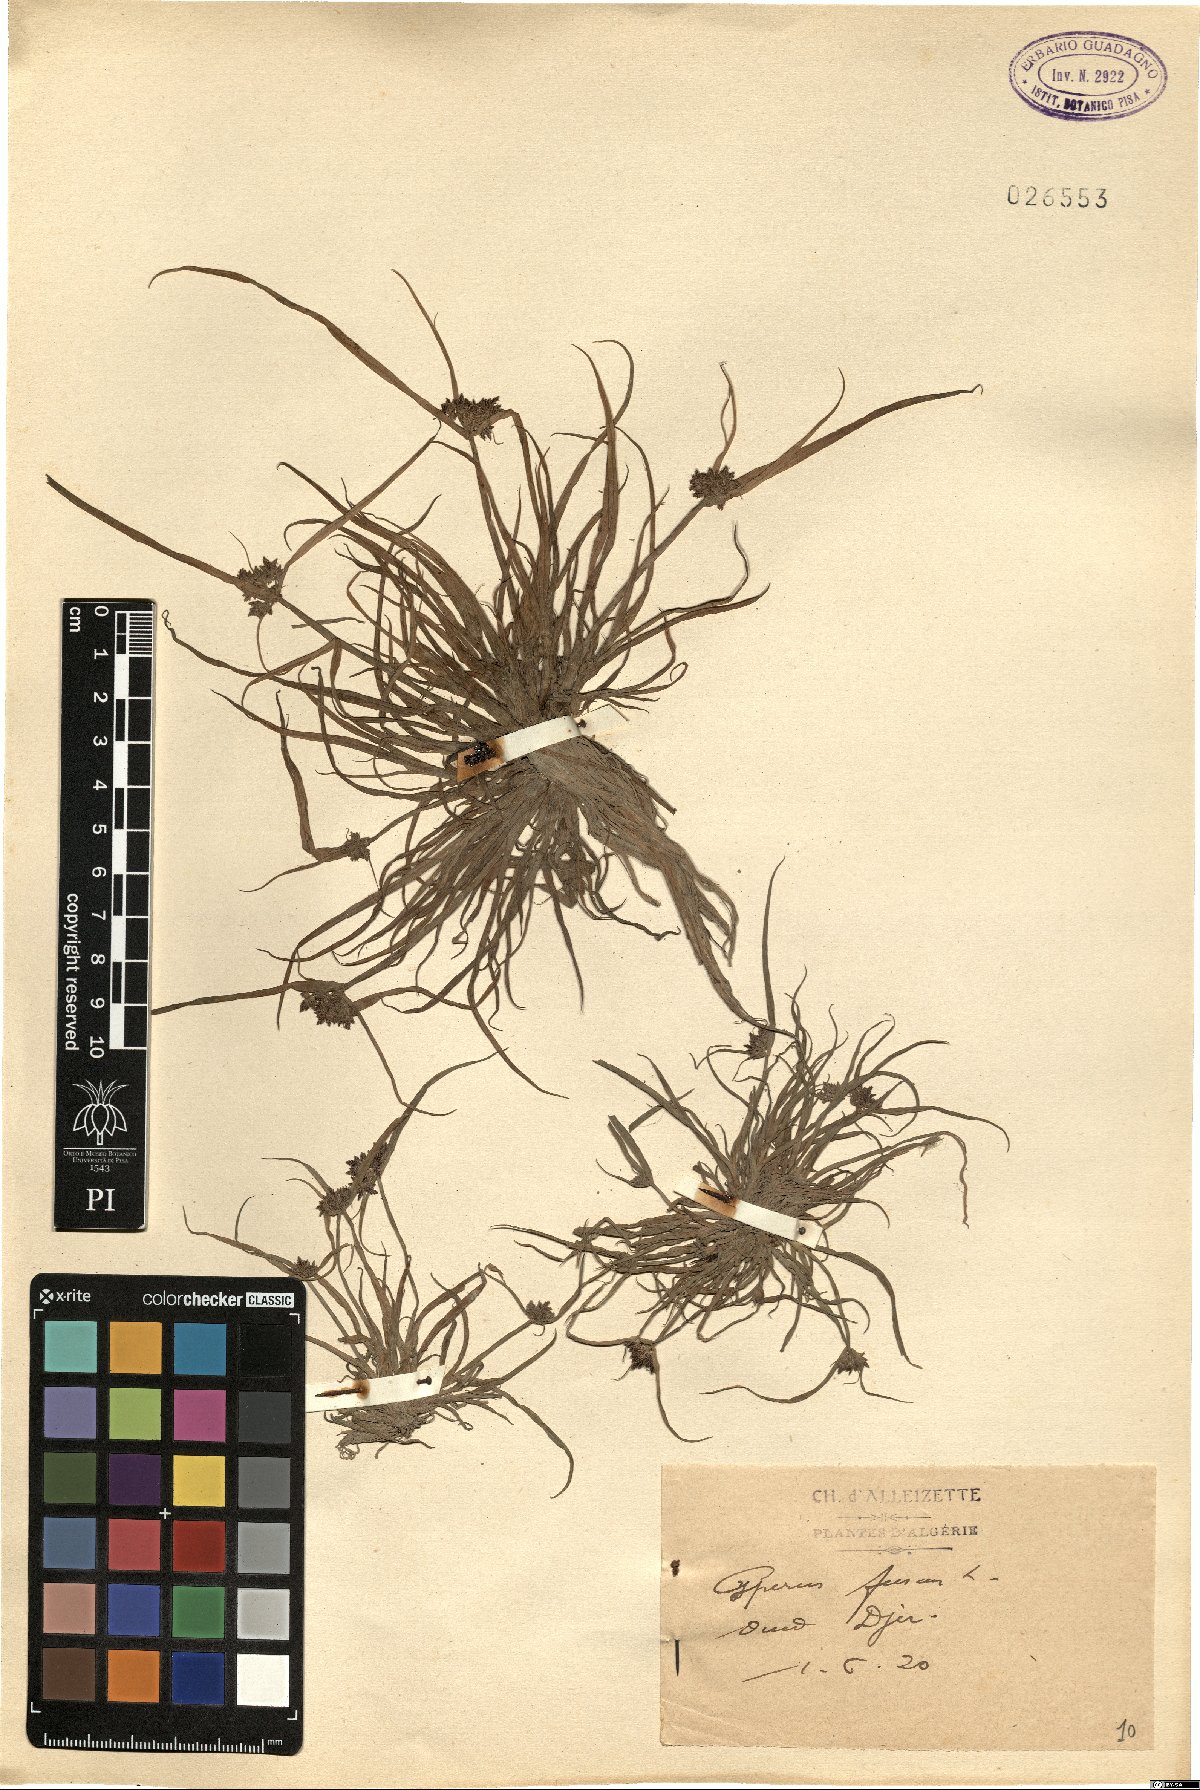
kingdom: Plantae
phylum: Tracheophyta
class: Liliopsida
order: Poales
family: Cyperaceae
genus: Cyperus
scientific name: Cyperus fuscus
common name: Brown galingale
